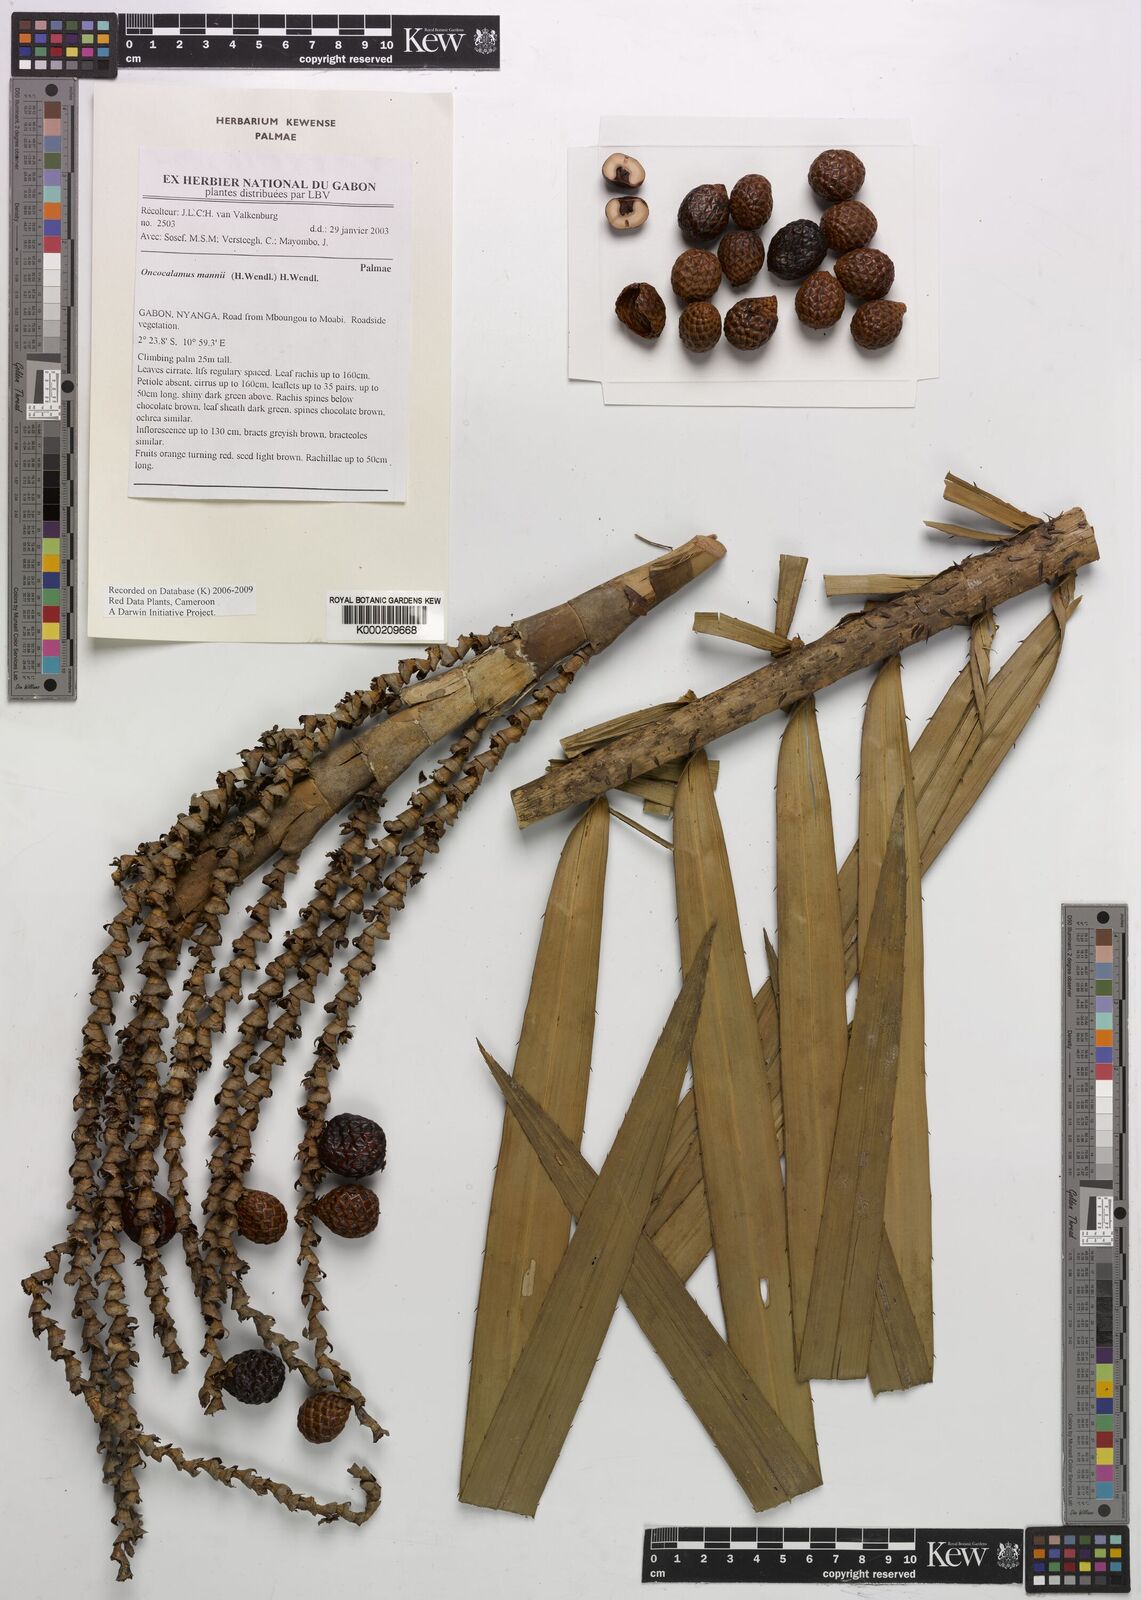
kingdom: Plantae
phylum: Tracheophyta
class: Liliopsida
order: Arecales
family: Arecaceae
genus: Oncocalamus
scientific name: Oncocalamus mannii
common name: Rattan
